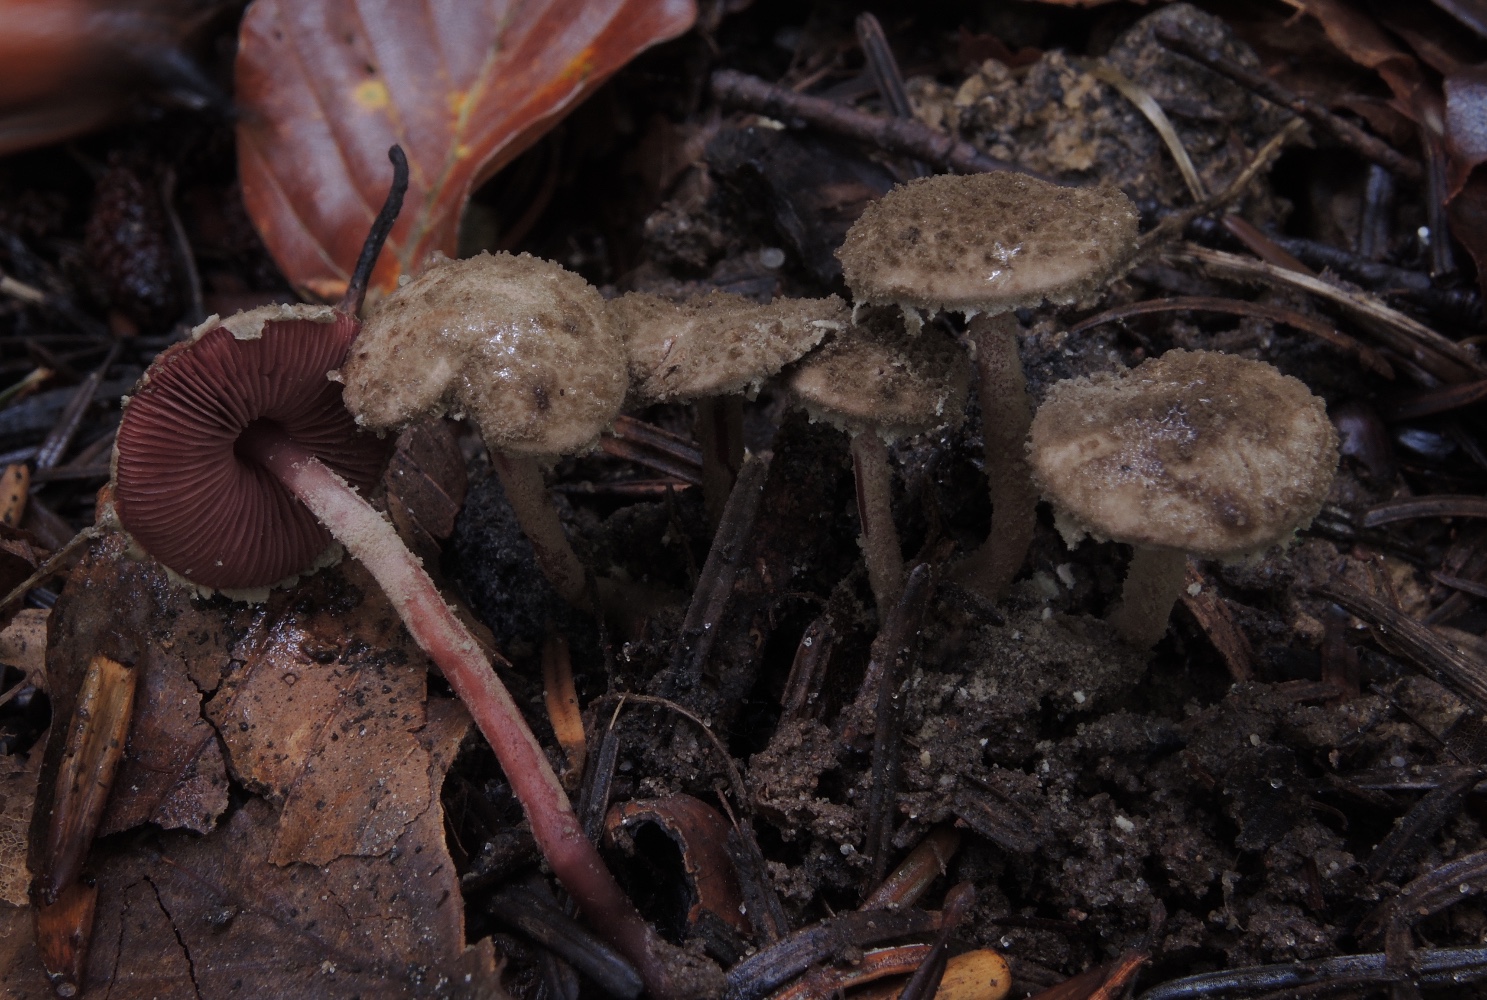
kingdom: Fungi
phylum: Basidiomycota
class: Agaricomycetes
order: Agaricales
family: Agaricaceae
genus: Melanophyllum
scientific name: Melanophyllum haematospermum
